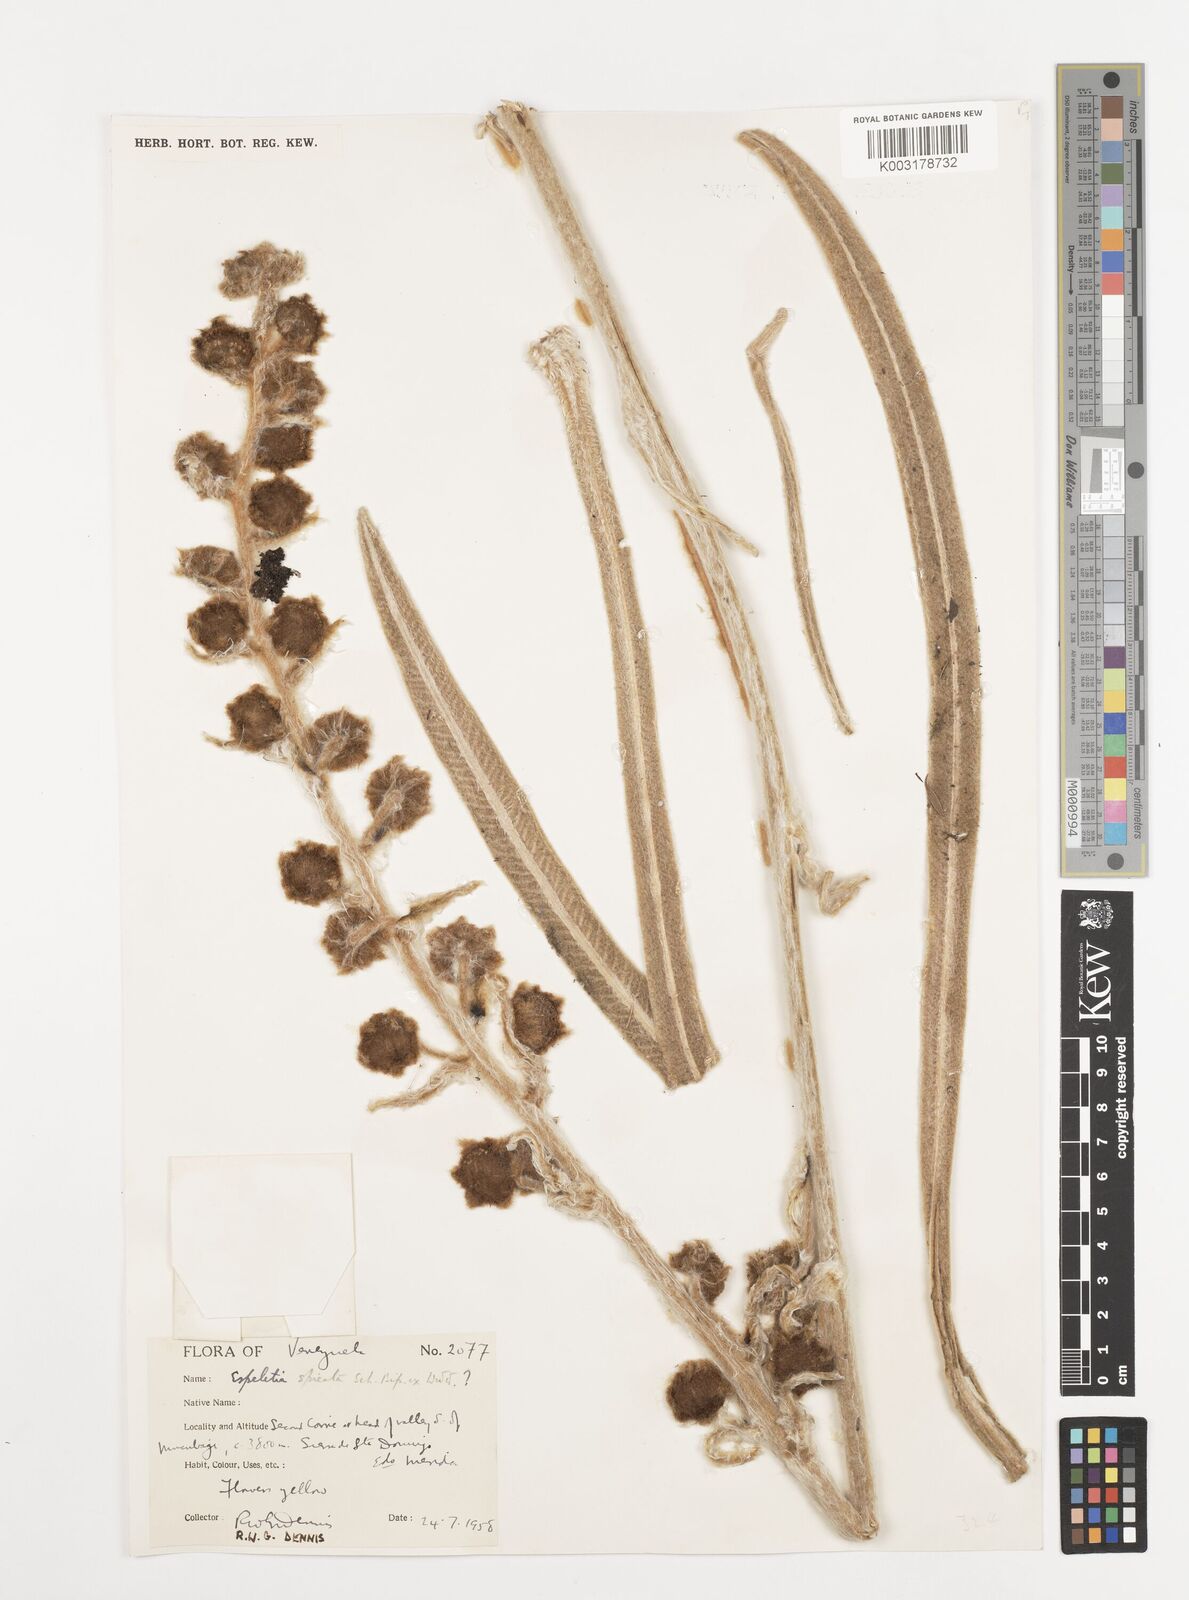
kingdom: Plantae
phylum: Tracheophyta
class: Magnoliopsida
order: Asterales
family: Asteraceae
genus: Espeletia
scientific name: Espeletia spicata
